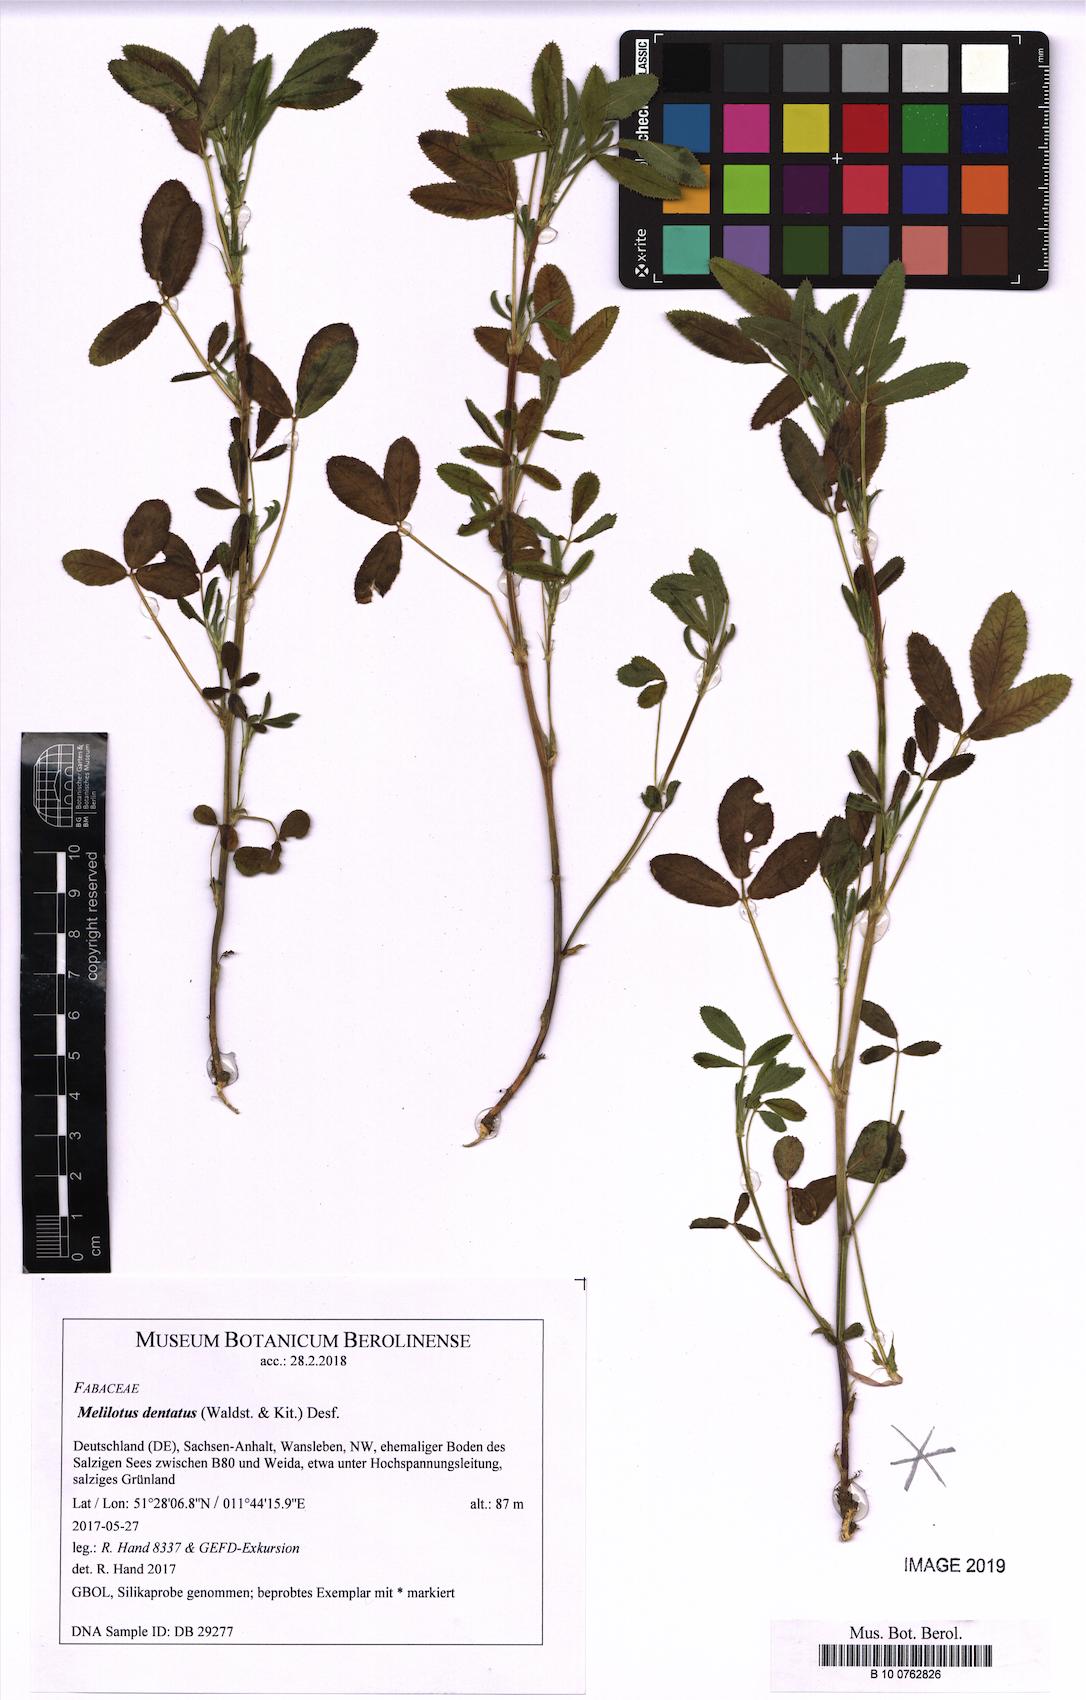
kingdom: Plantae
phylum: Tracheophyta
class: Magnoliopsida
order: Fabales
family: Fabaceae
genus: Melilotus
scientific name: Melilotus dentatus
